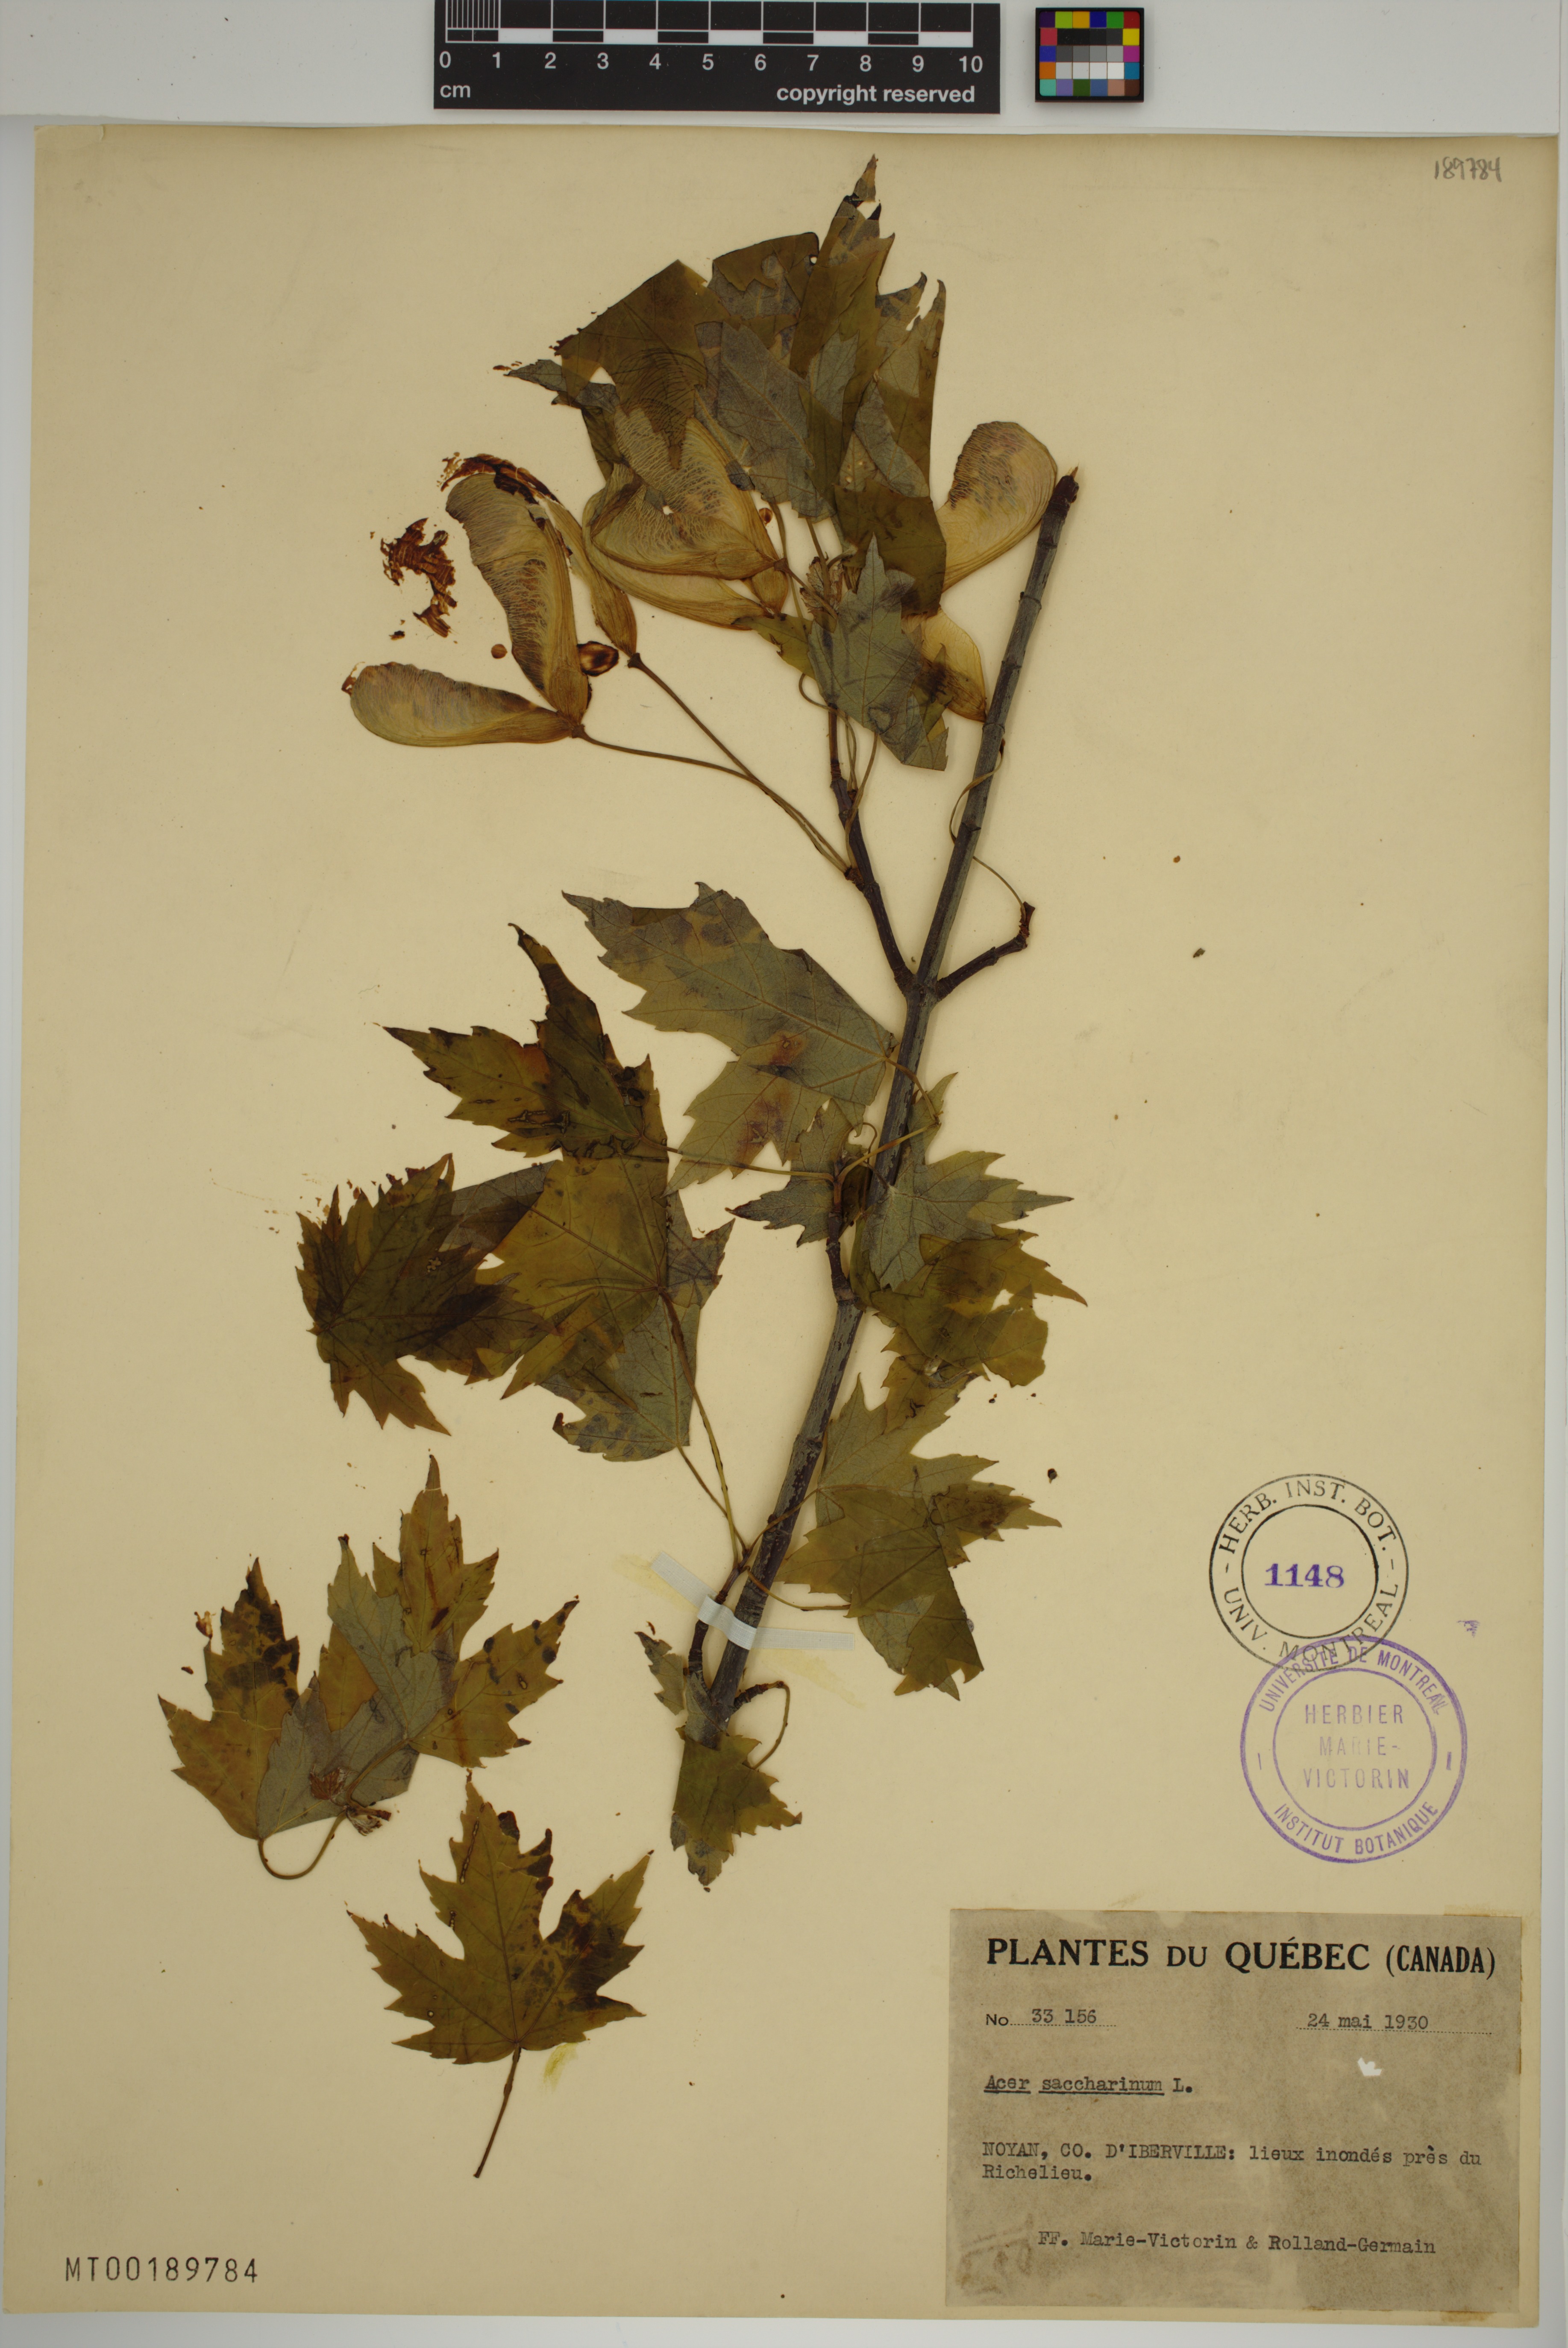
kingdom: Plantae
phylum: Tracheophyta
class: Magnoliopsida
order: Sapindales
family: Sapindaceae
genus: Acer
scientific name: Acer saccharinum
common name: Silver maple
